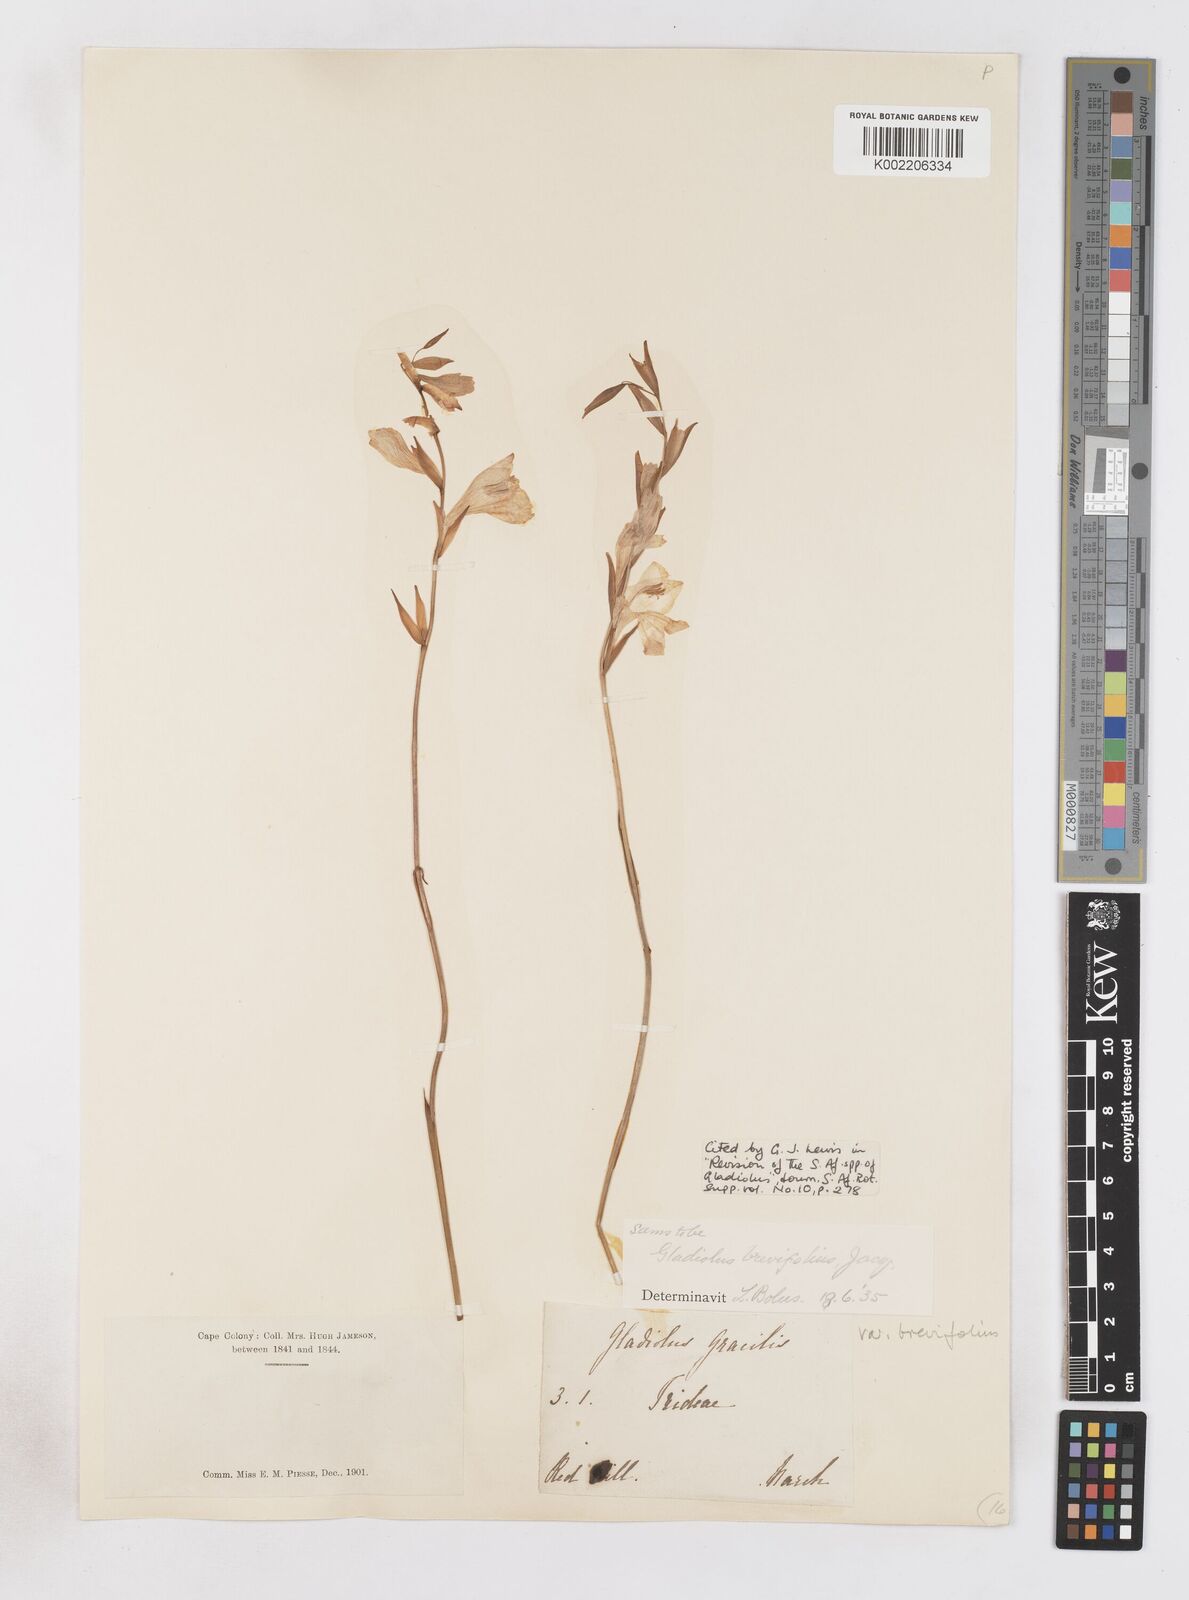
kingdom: Plantae
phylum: Tracheophyta
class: Liliopsida
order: Asparagales
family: Iridaceae
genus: Gladiolus
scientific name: Gladiolus brevifolius
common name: March pypie
